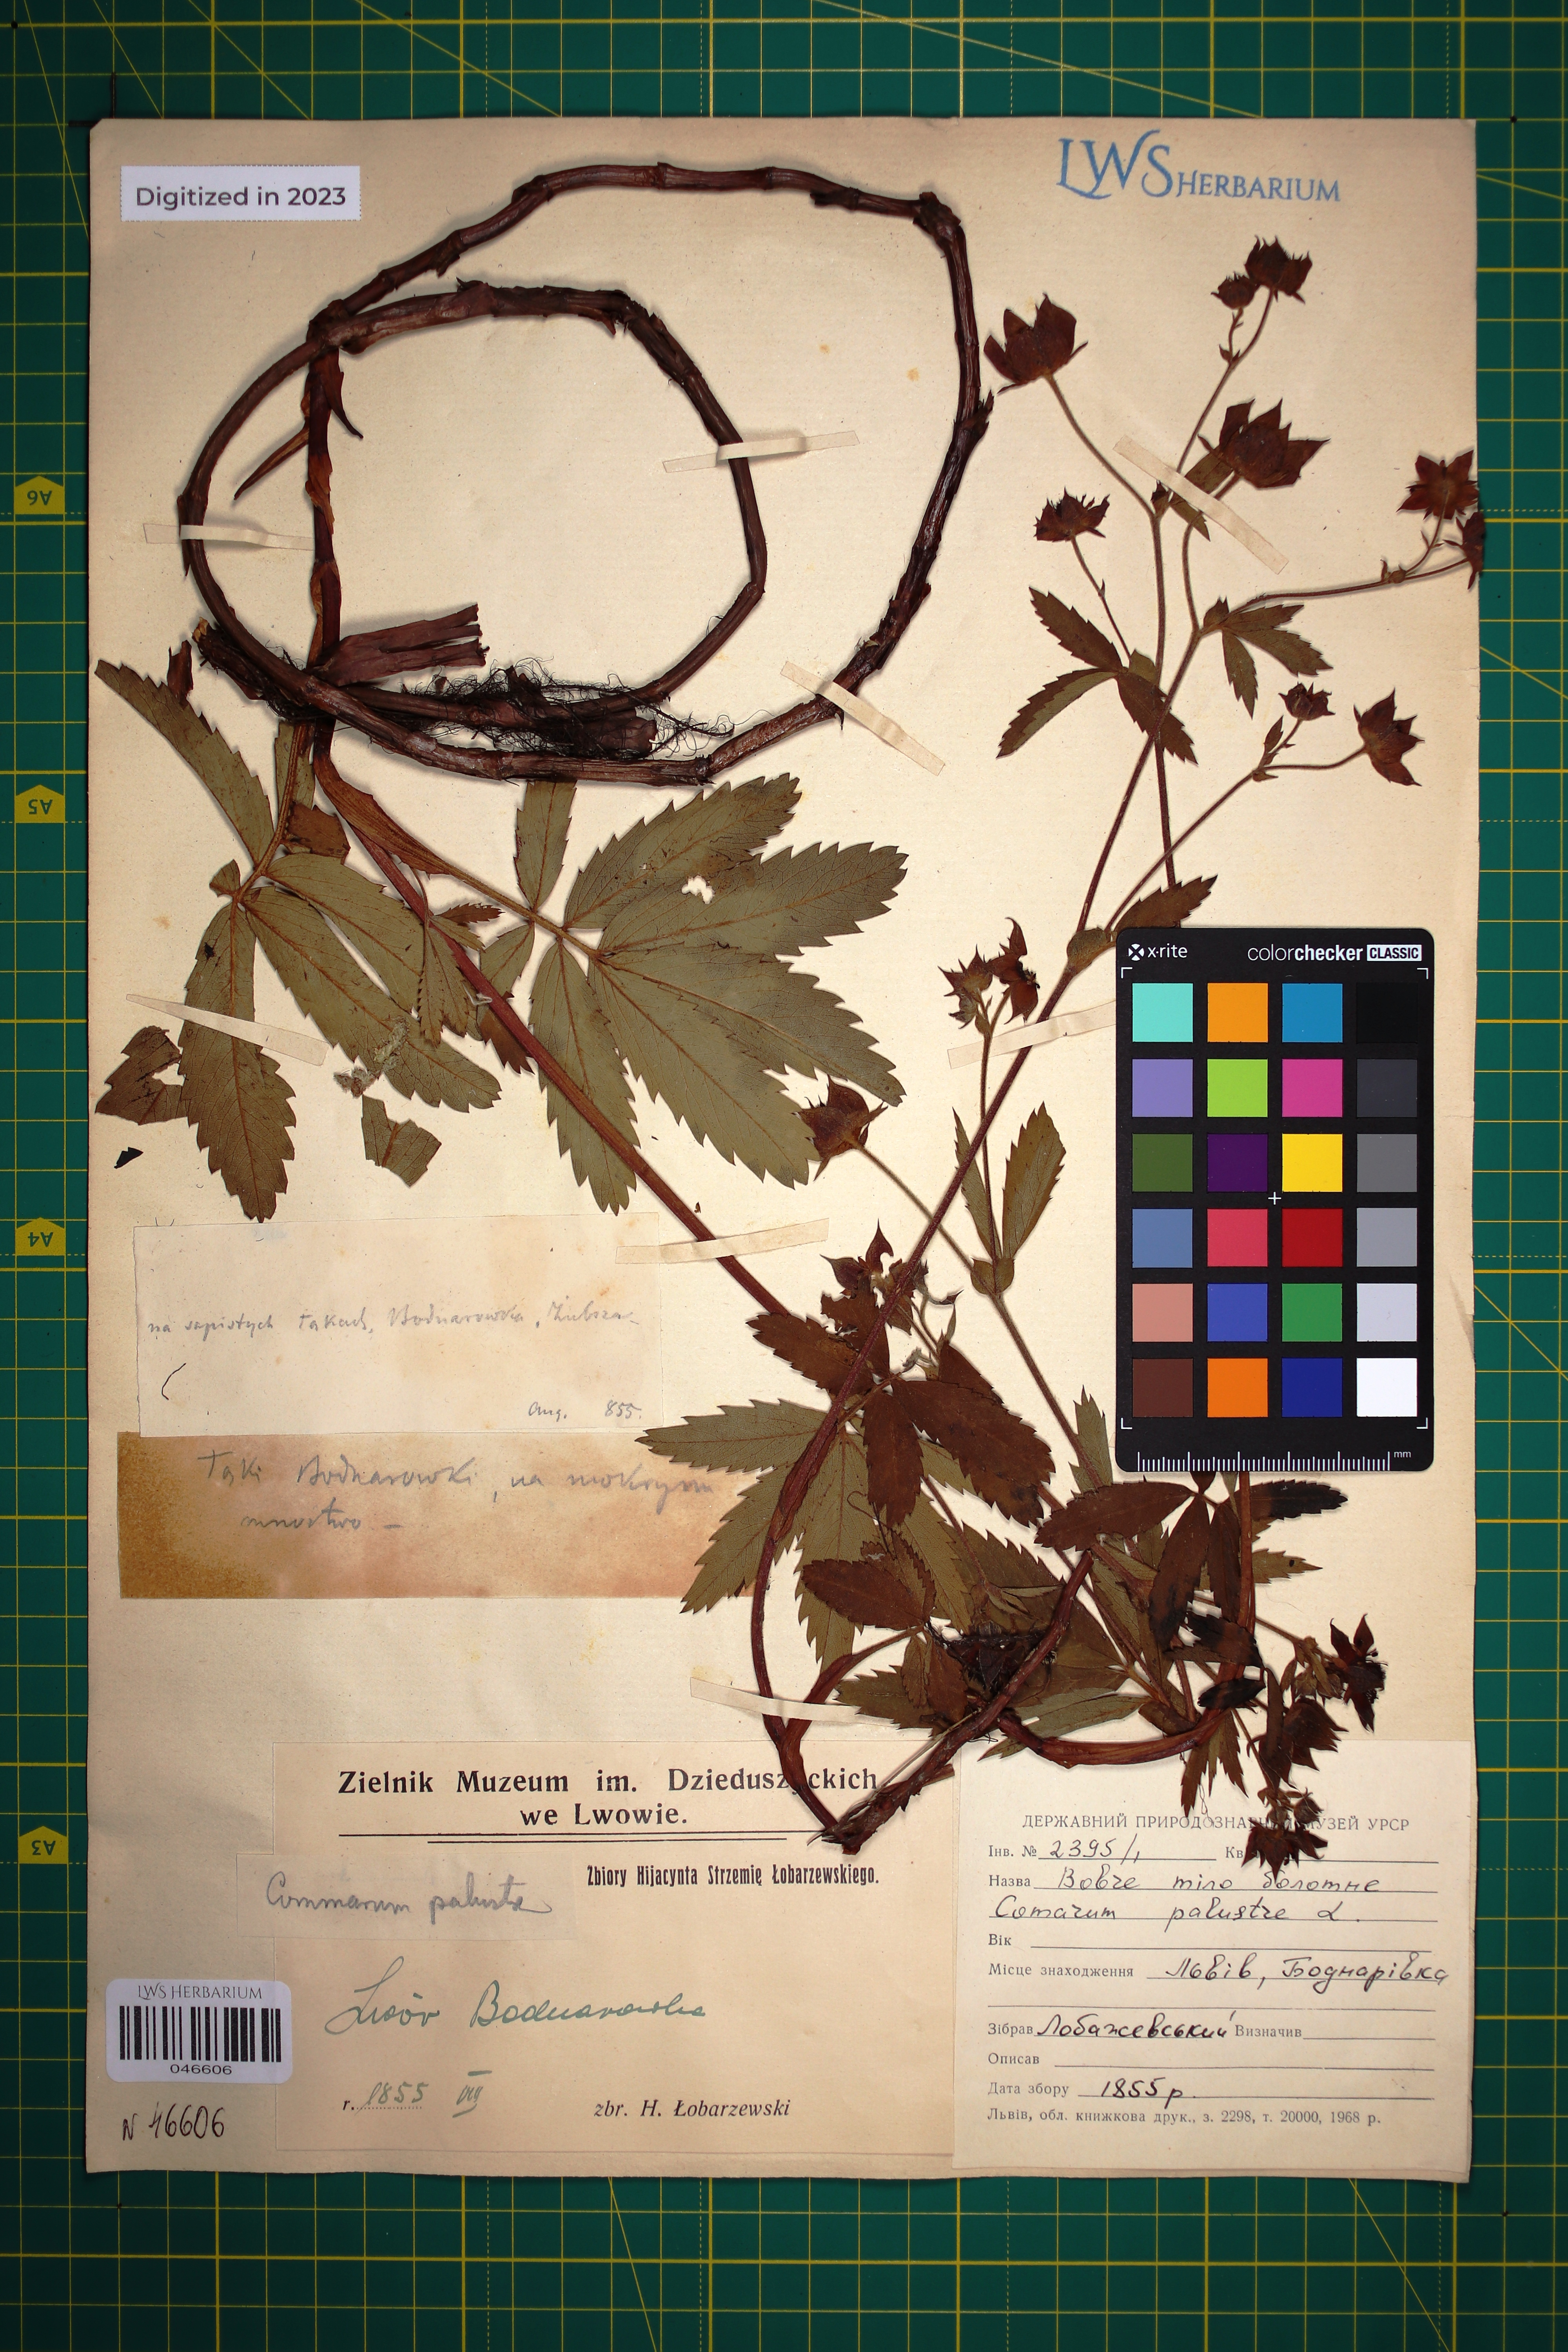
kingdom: Plantae
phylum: Tracheophyta
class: Magnoliopsida
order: Rosales
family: Rosaceae
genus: Comarum
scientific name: Comarum palustre
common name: Marsh cinquefoil
